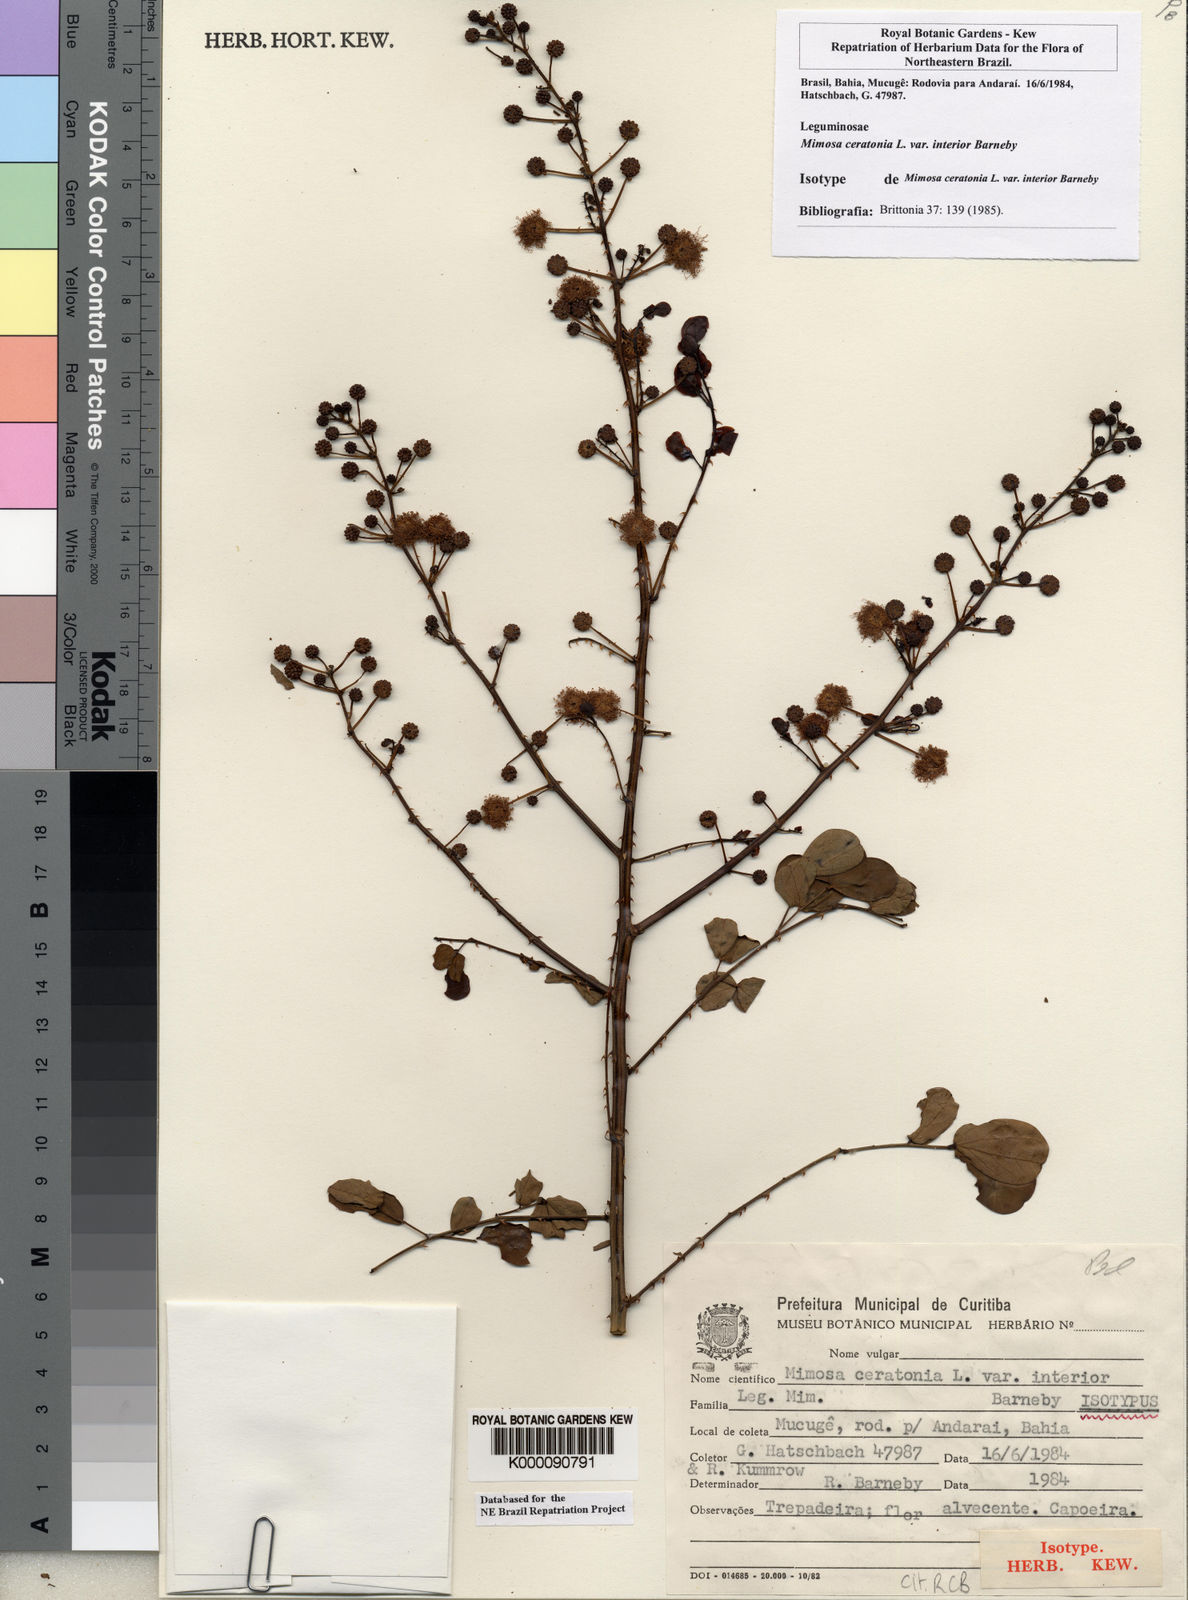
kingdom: Plantae
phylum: Tracheophyta
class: Magnoliopsida
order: Fabales
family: Fabaceae
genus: Mimosa
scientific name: Mimosa ceratonia
